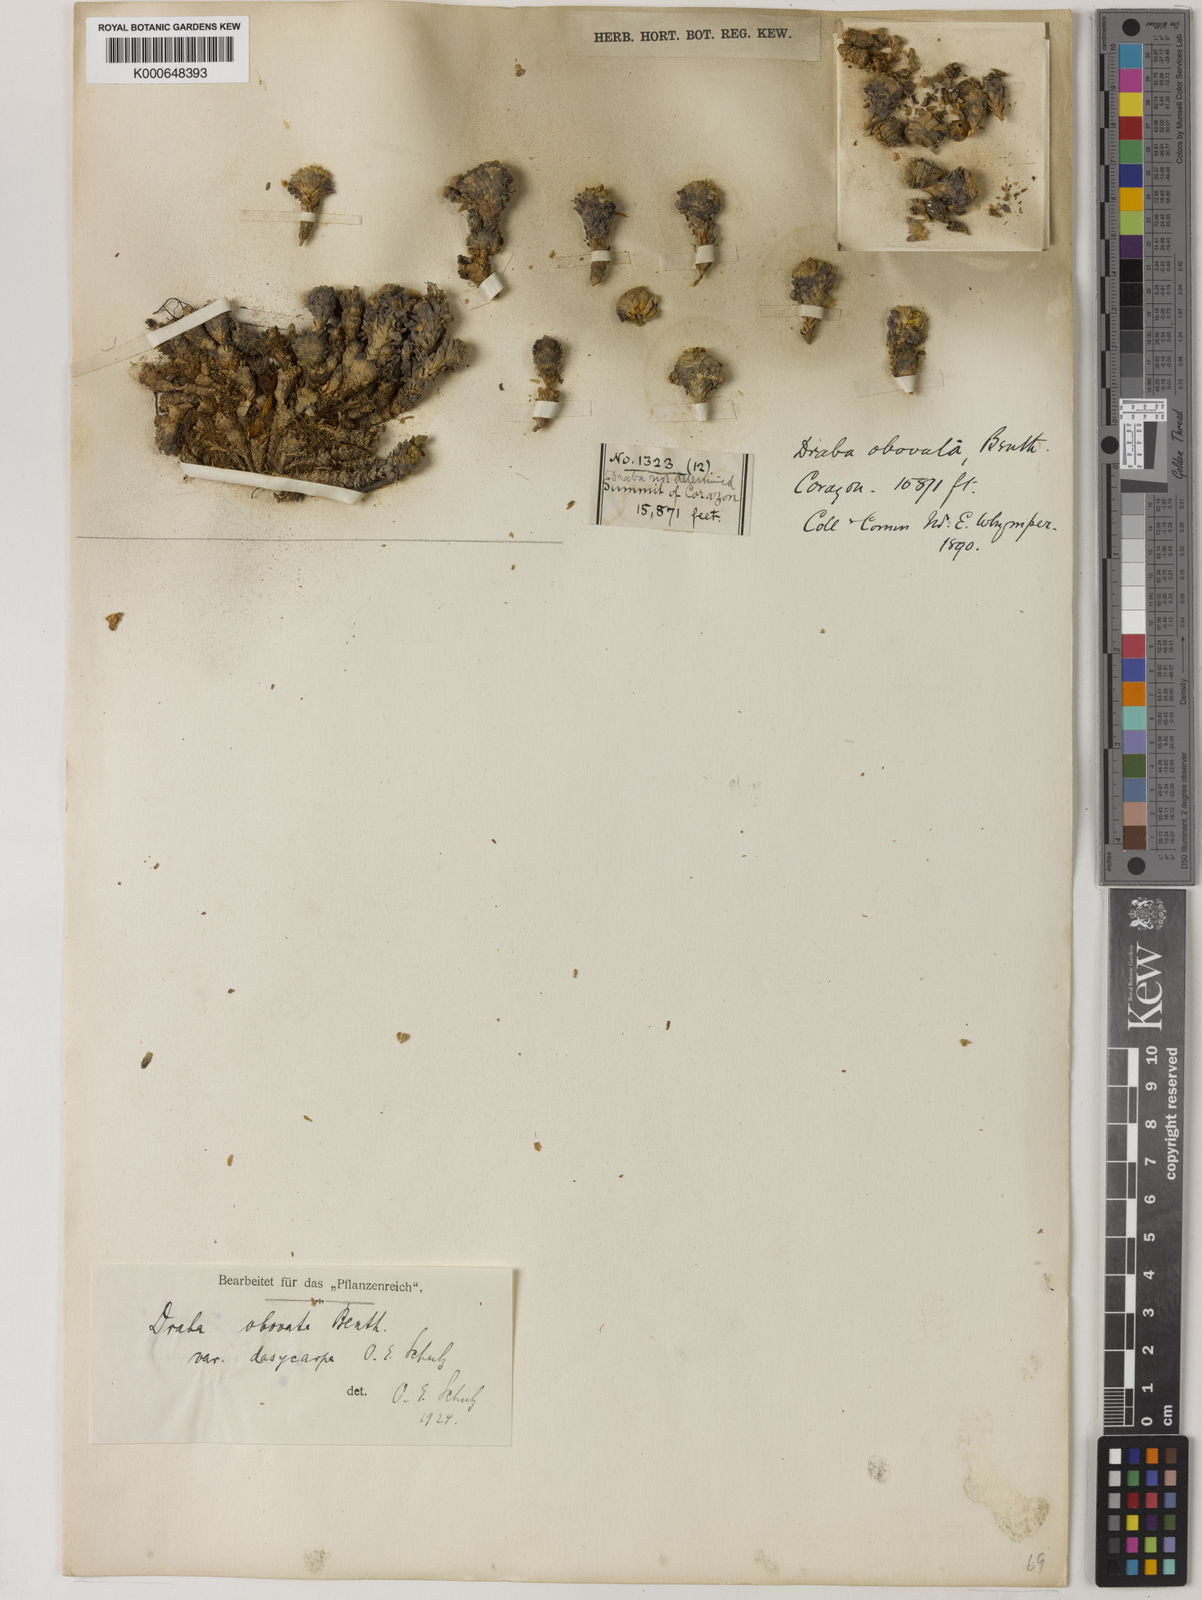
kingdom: Plantae
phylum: Tracheophyta
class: Magnoliopsida
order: Brassicales
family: Brassicaceae
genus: Draba
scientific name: Draba obovata
